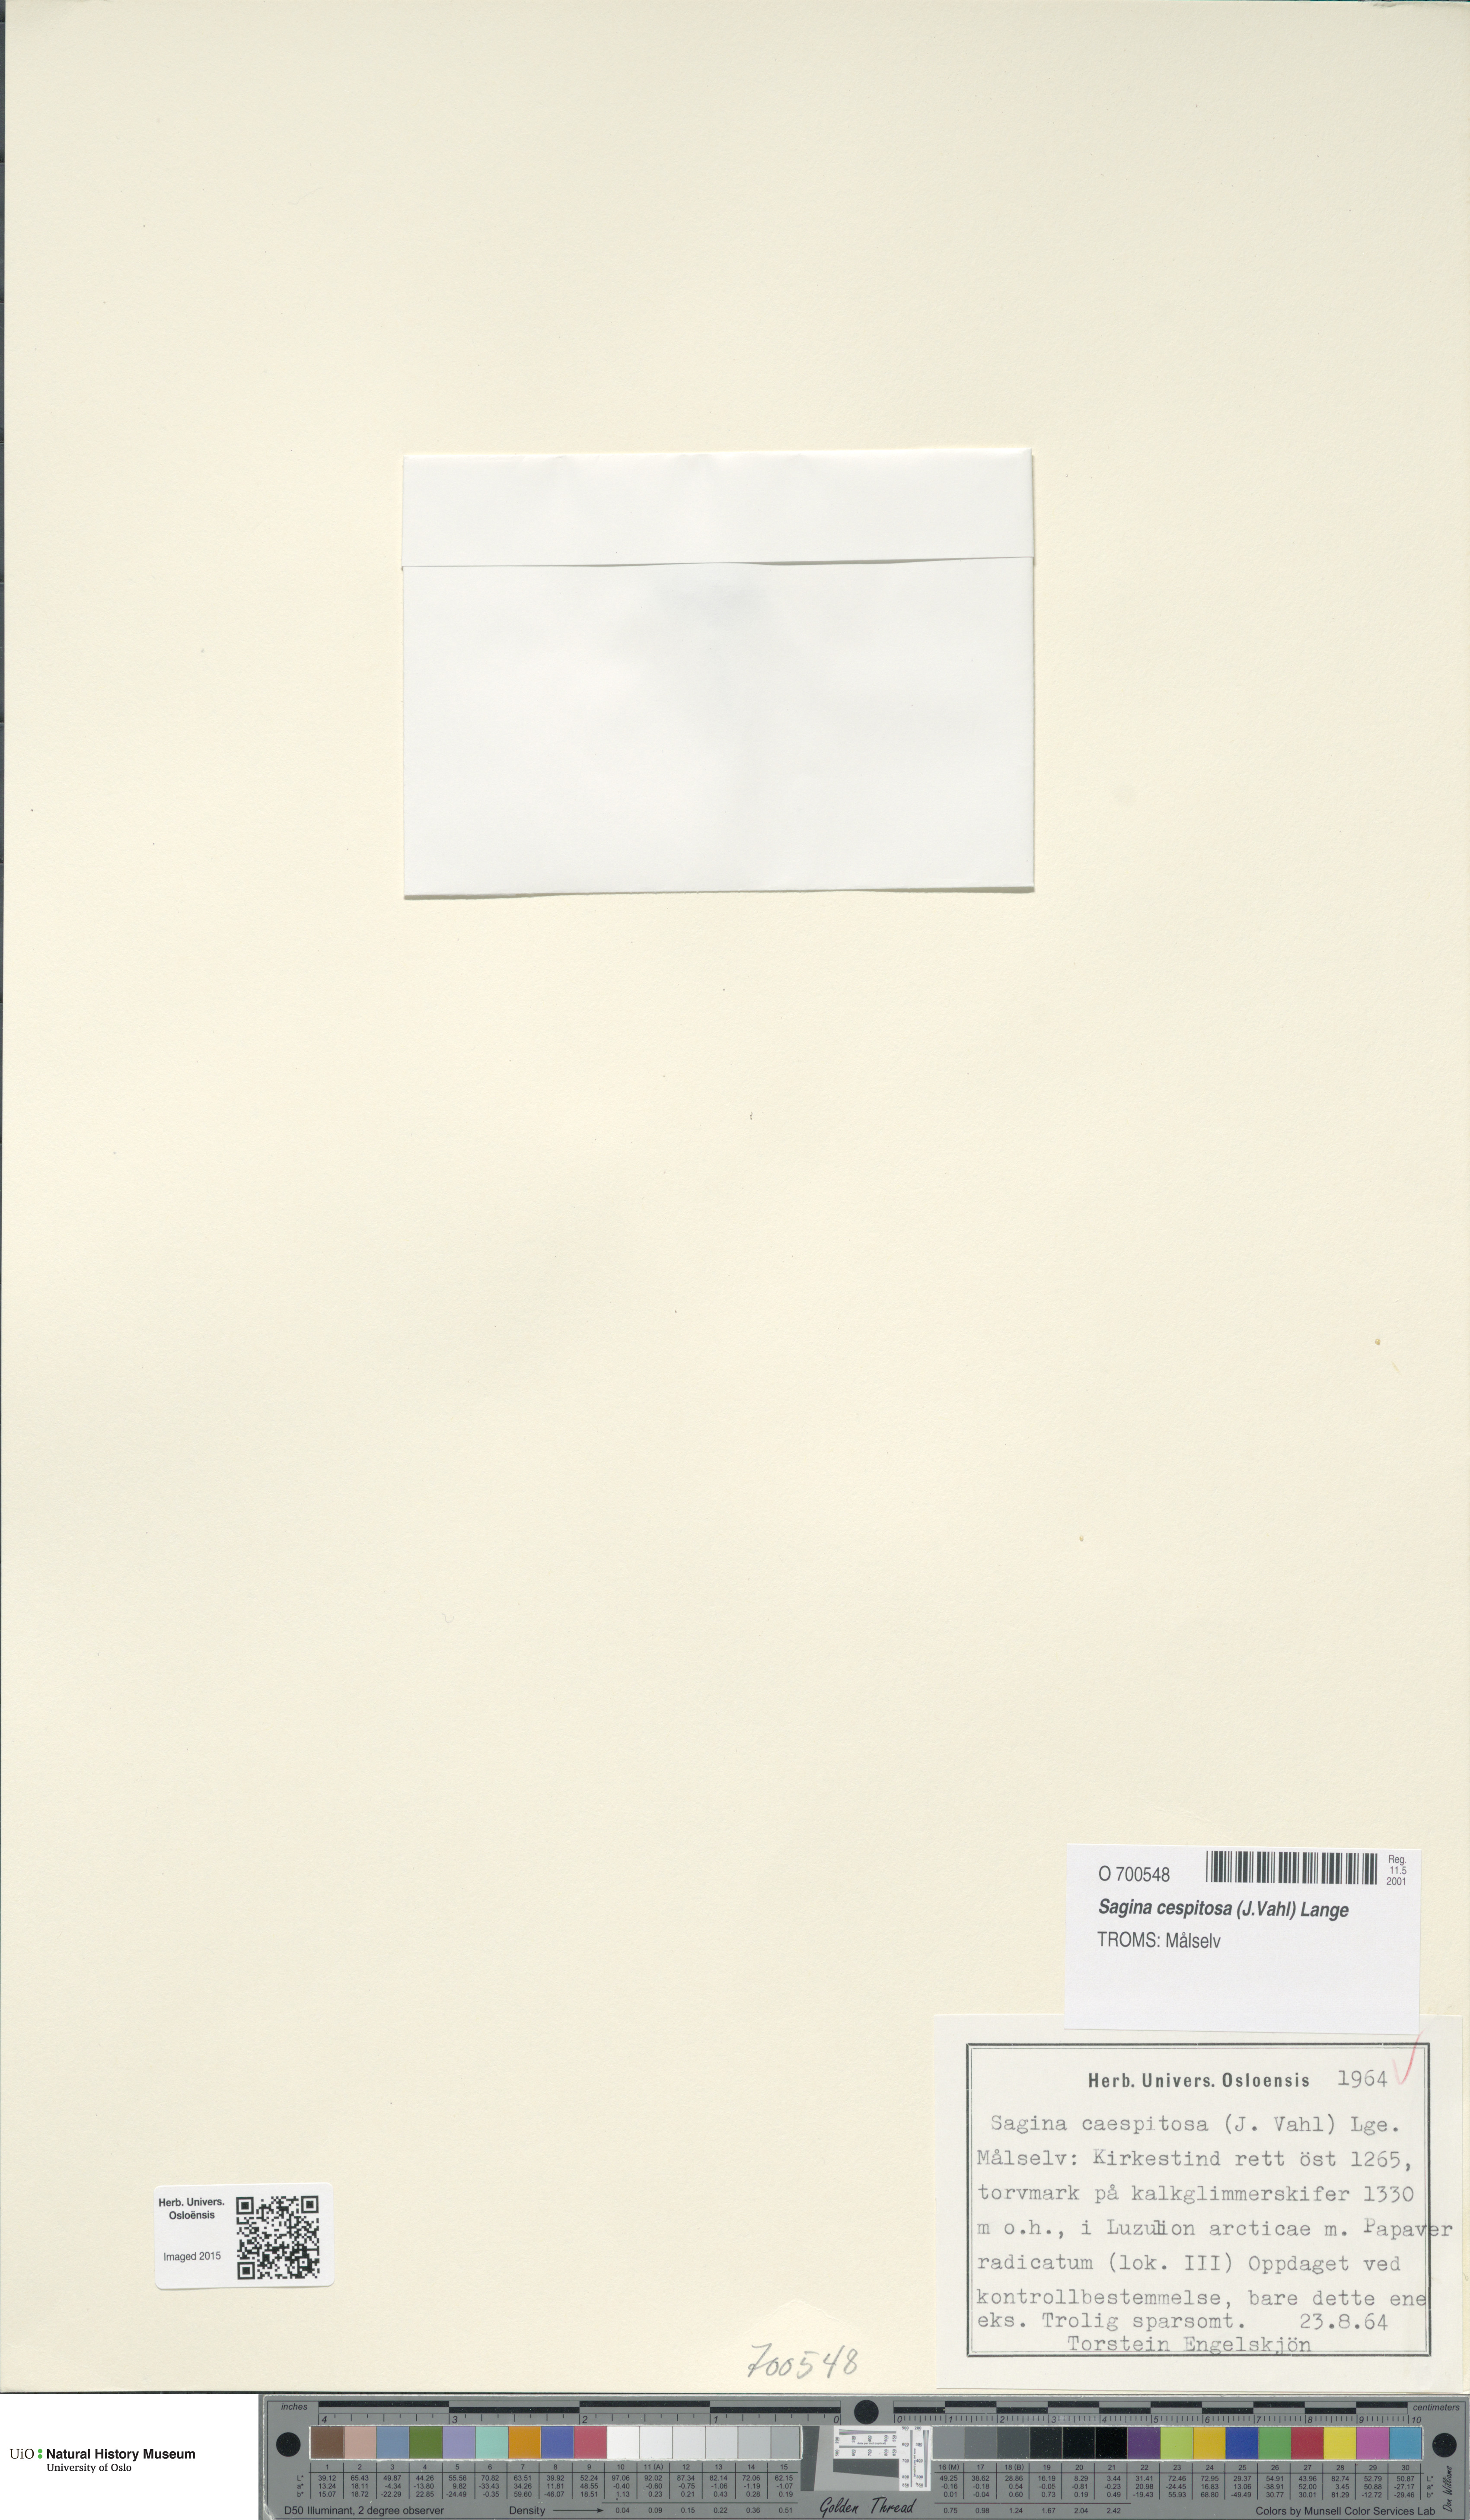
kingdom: Plantae
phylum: Tracheophyta
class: Magnoliopsida
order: Caryophyllales
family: Caryophyllaceae
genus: Sagina
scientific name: Sagina caespitosa
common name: Tufted pearlwort
